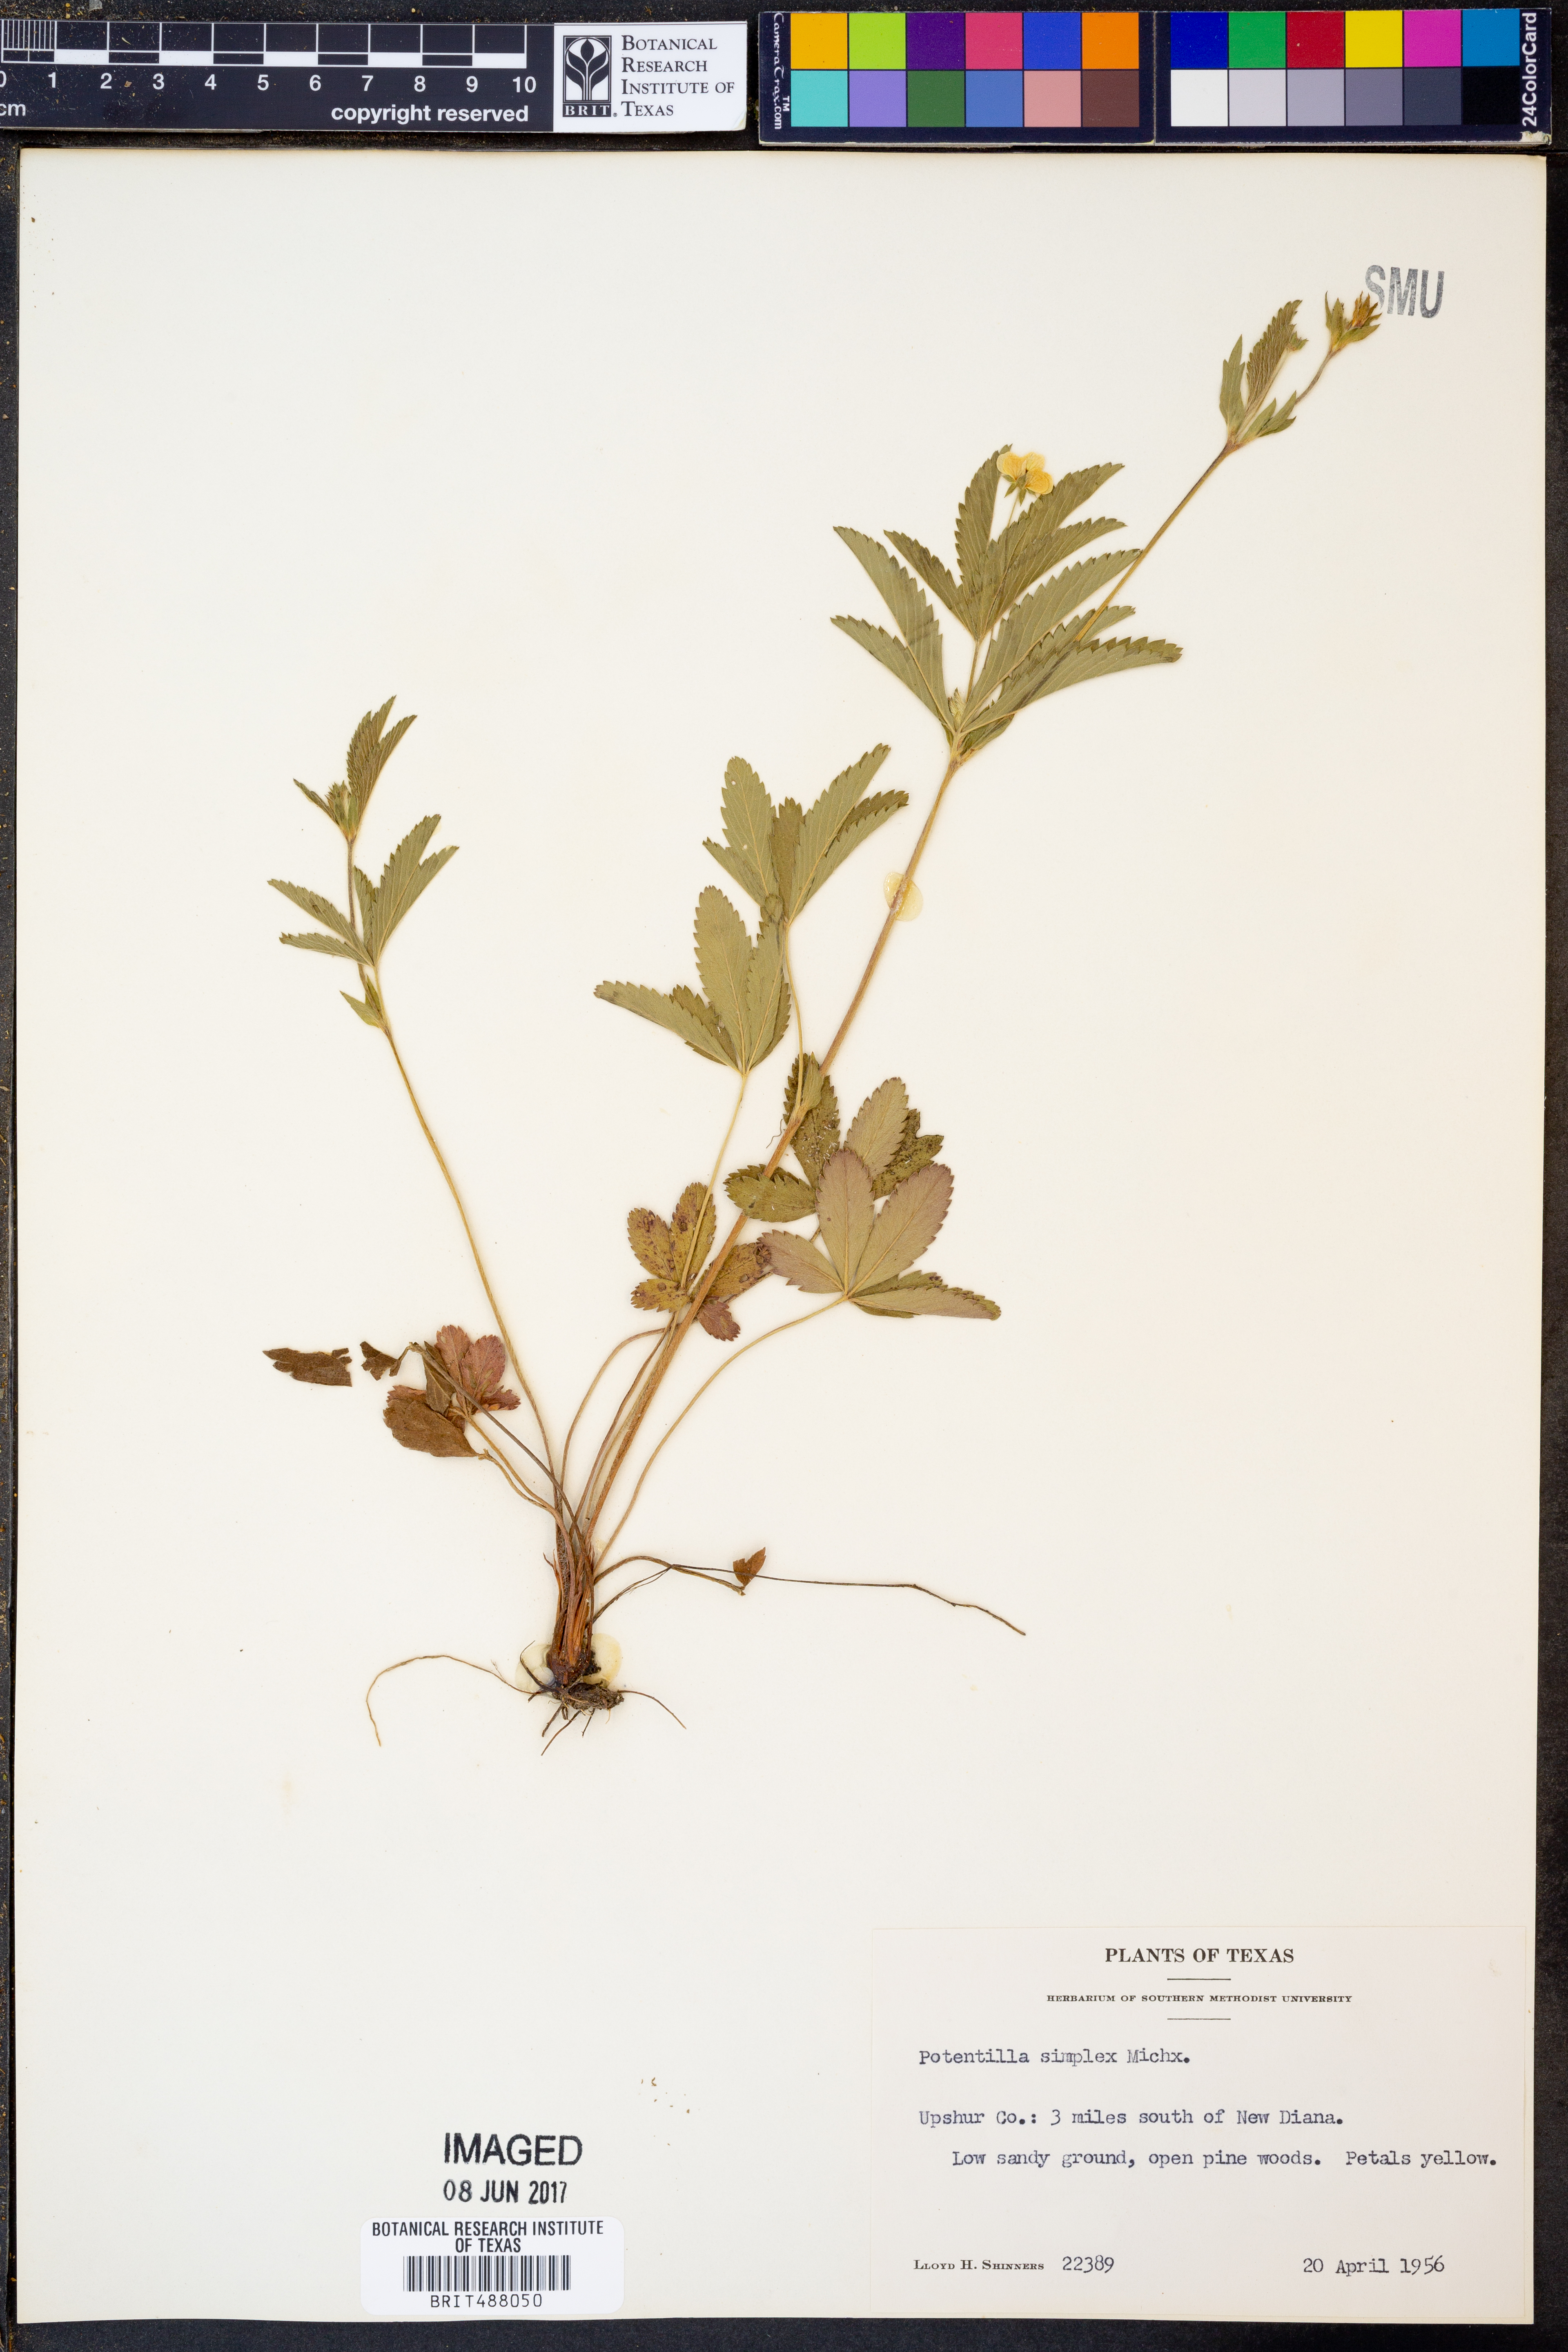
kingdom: Plantae
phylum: Tracheophyta
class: Magnoliopsida
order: Rosales
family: Rosaceae
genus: Potentilla
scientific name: Potentilla simplex
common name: Old field cinquefoil
